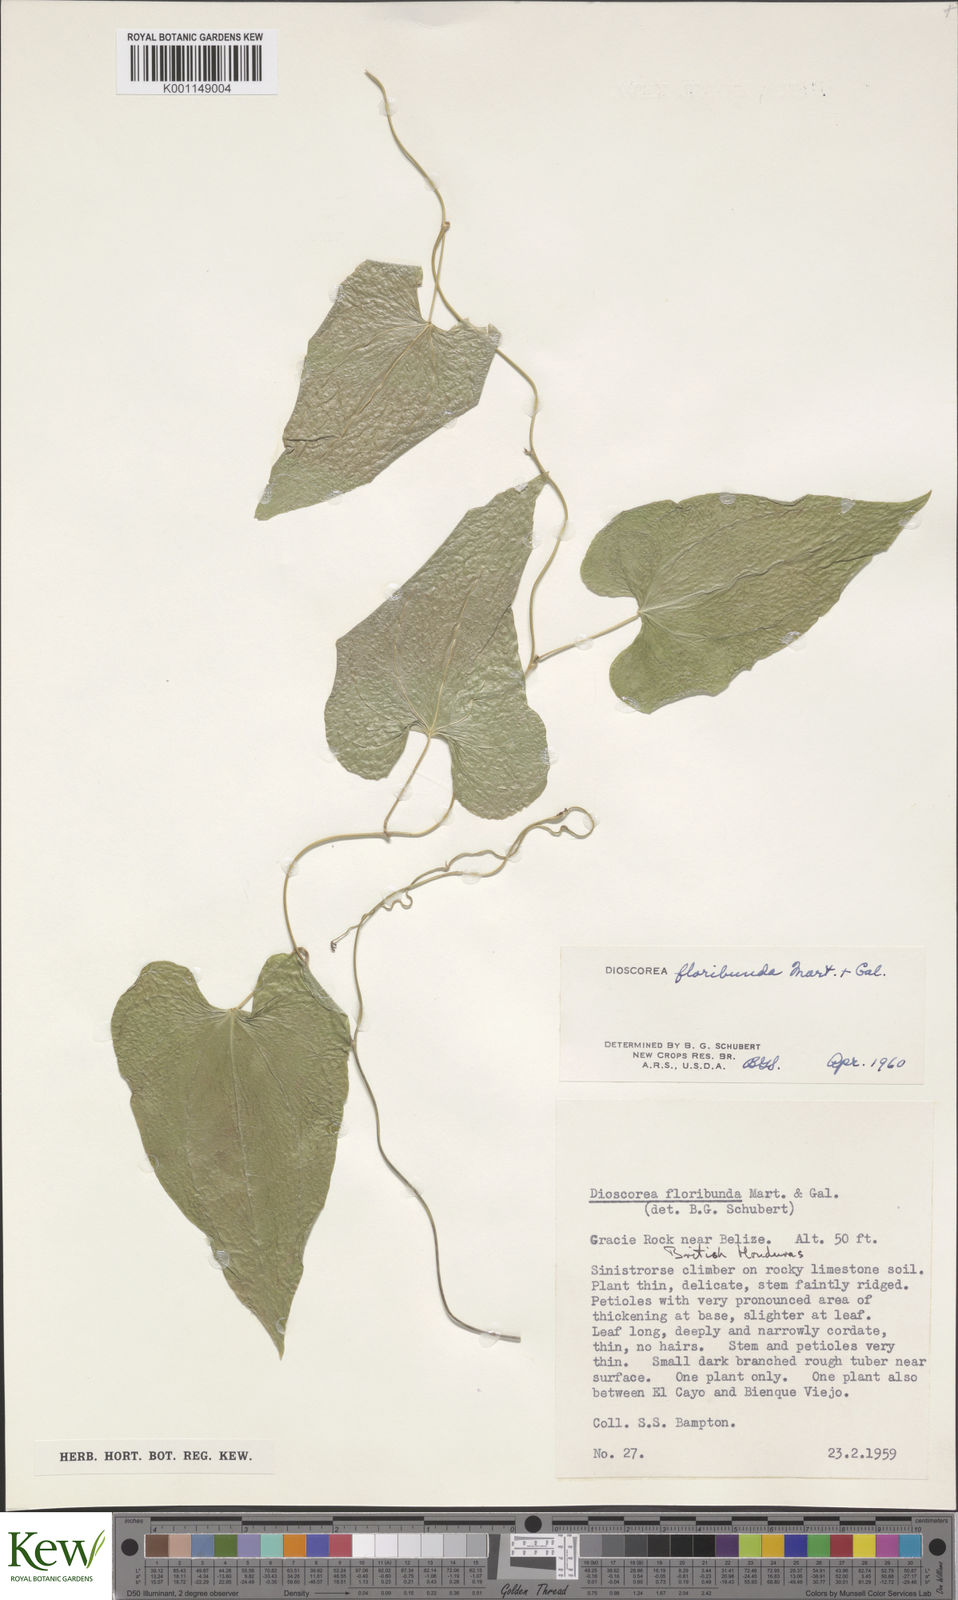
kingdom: Plantae
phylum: Tracheophyta
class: Liliopsida
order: Dioscoreales
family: Dioscoreaceae
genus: Dioscorea
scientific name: Dioscorea floribunda
